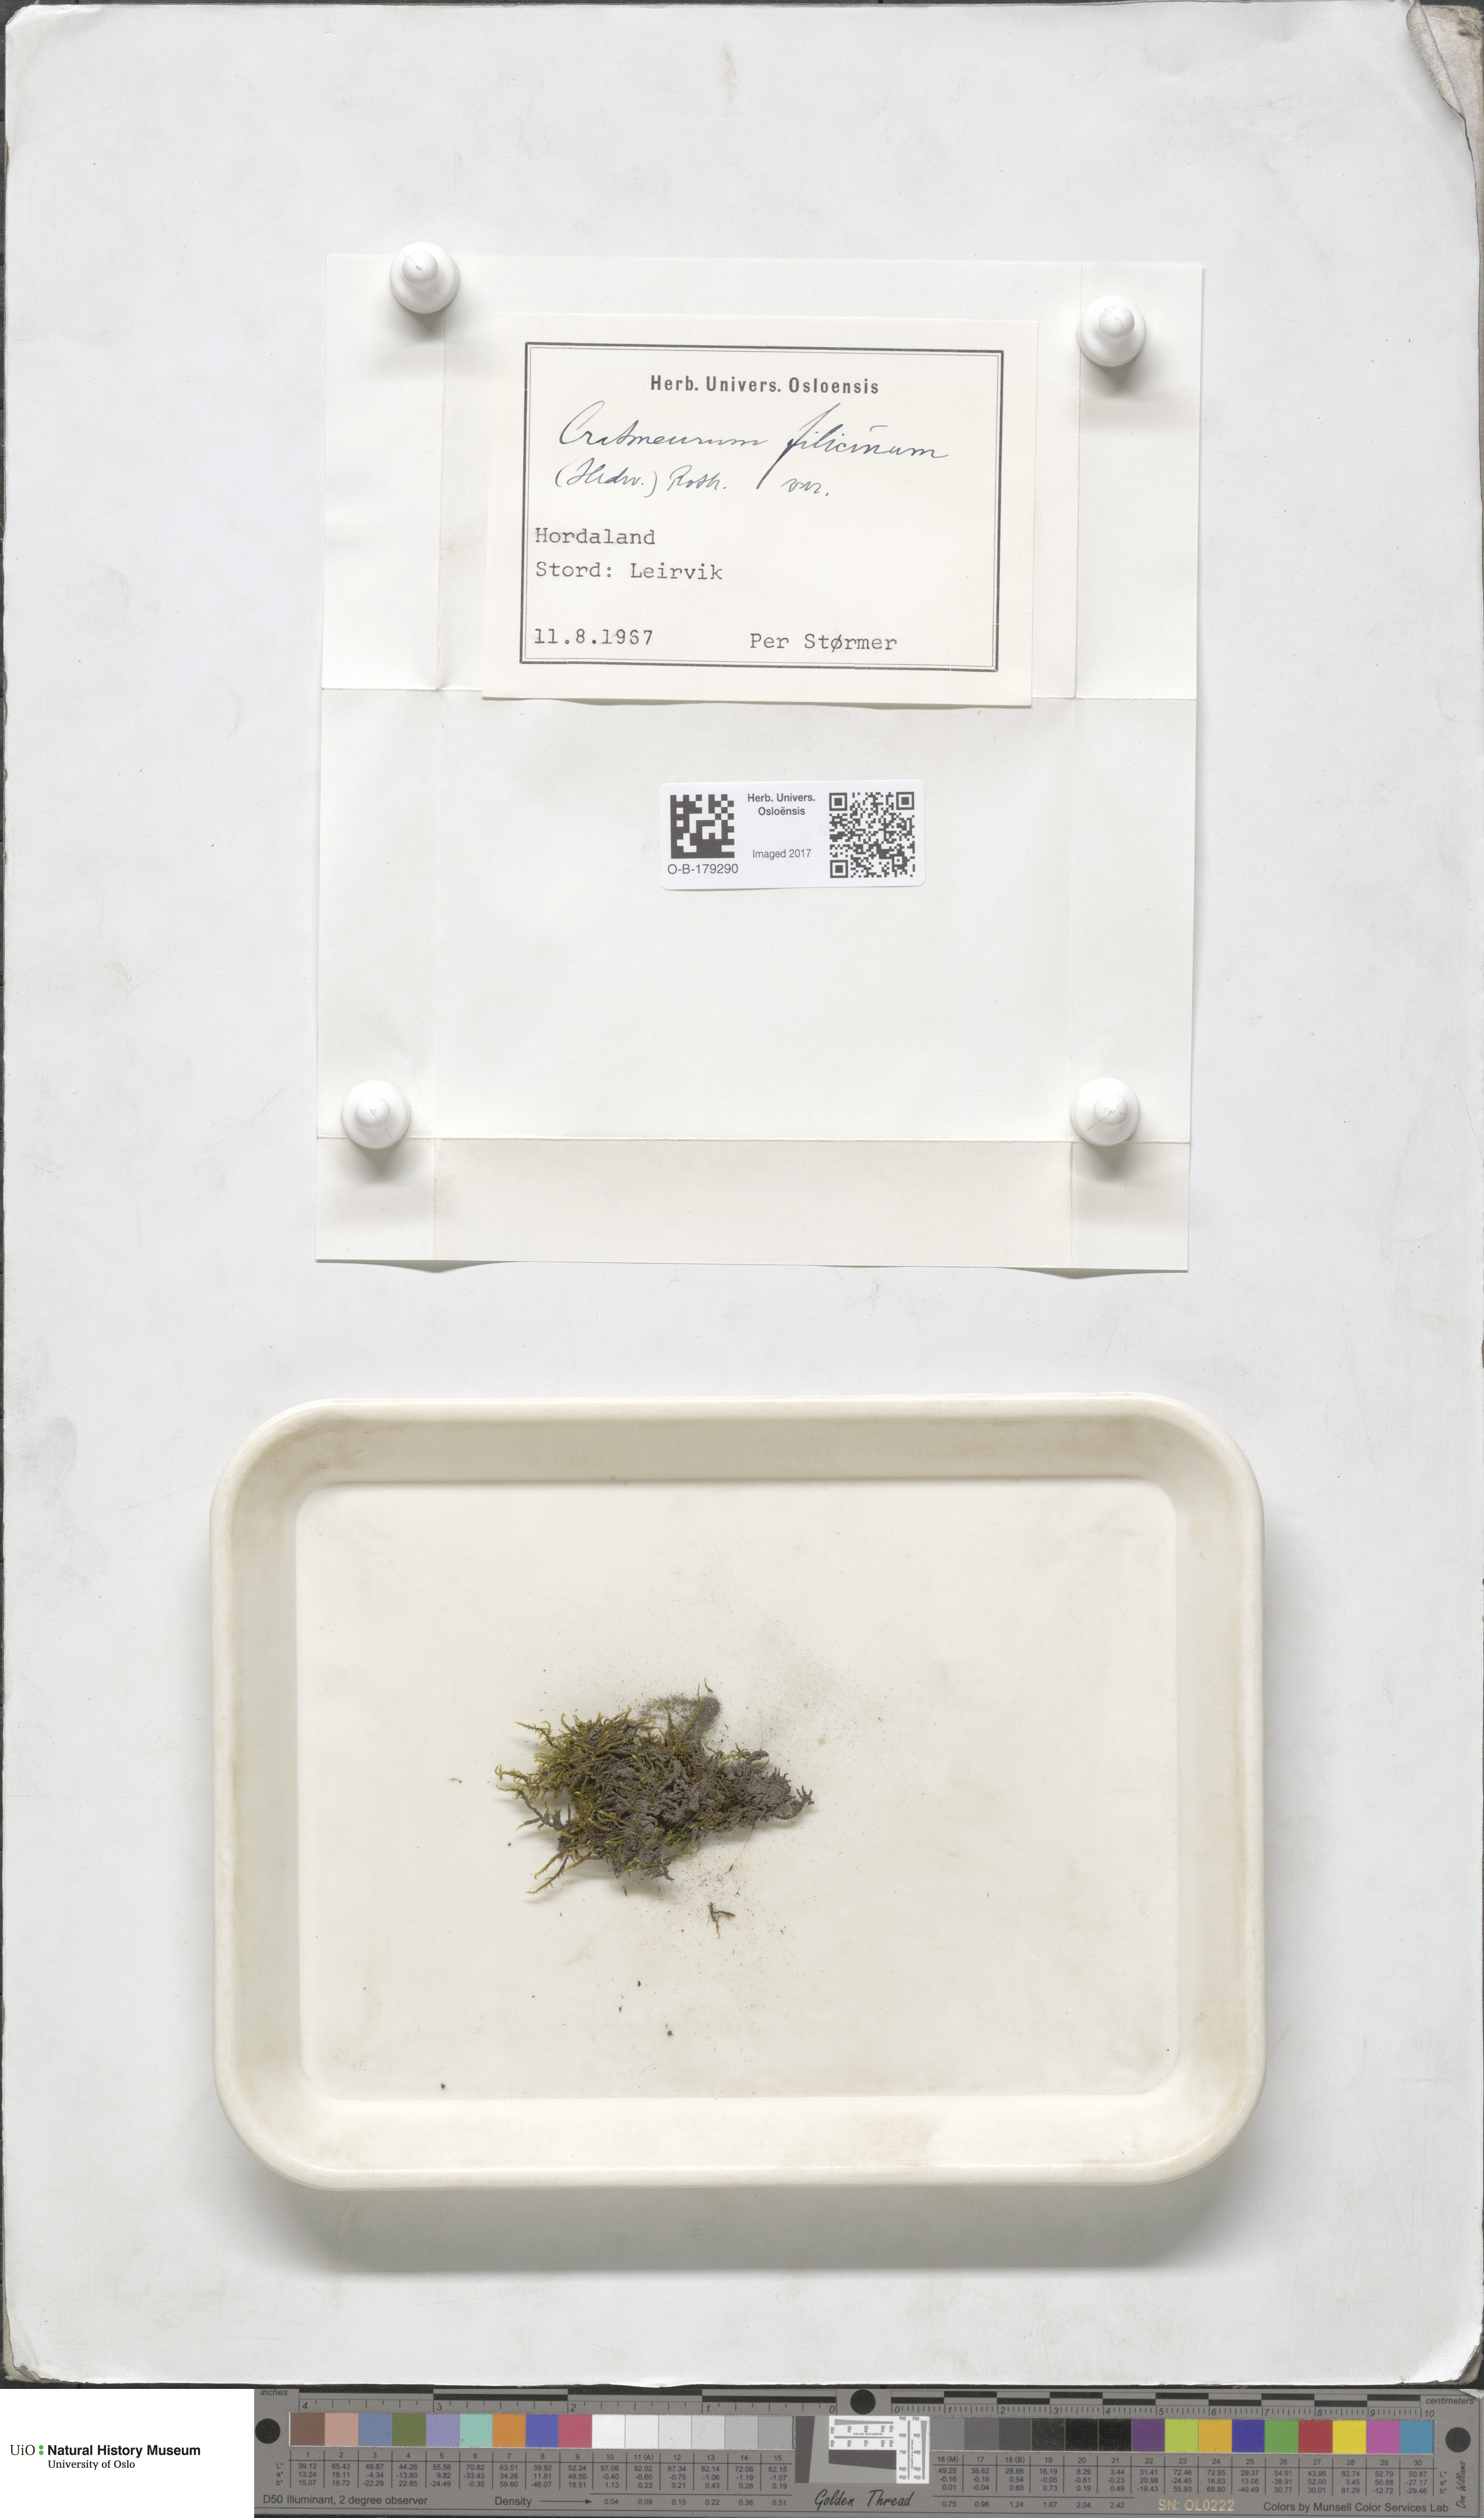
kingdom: Plantae
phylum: Bryophyta
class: Bryopsida
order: Hypnales
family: Amblystegiaceae
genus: Cratoneuron
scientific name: Cratoneuron filicinum
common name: Fern-leaved hook moss
